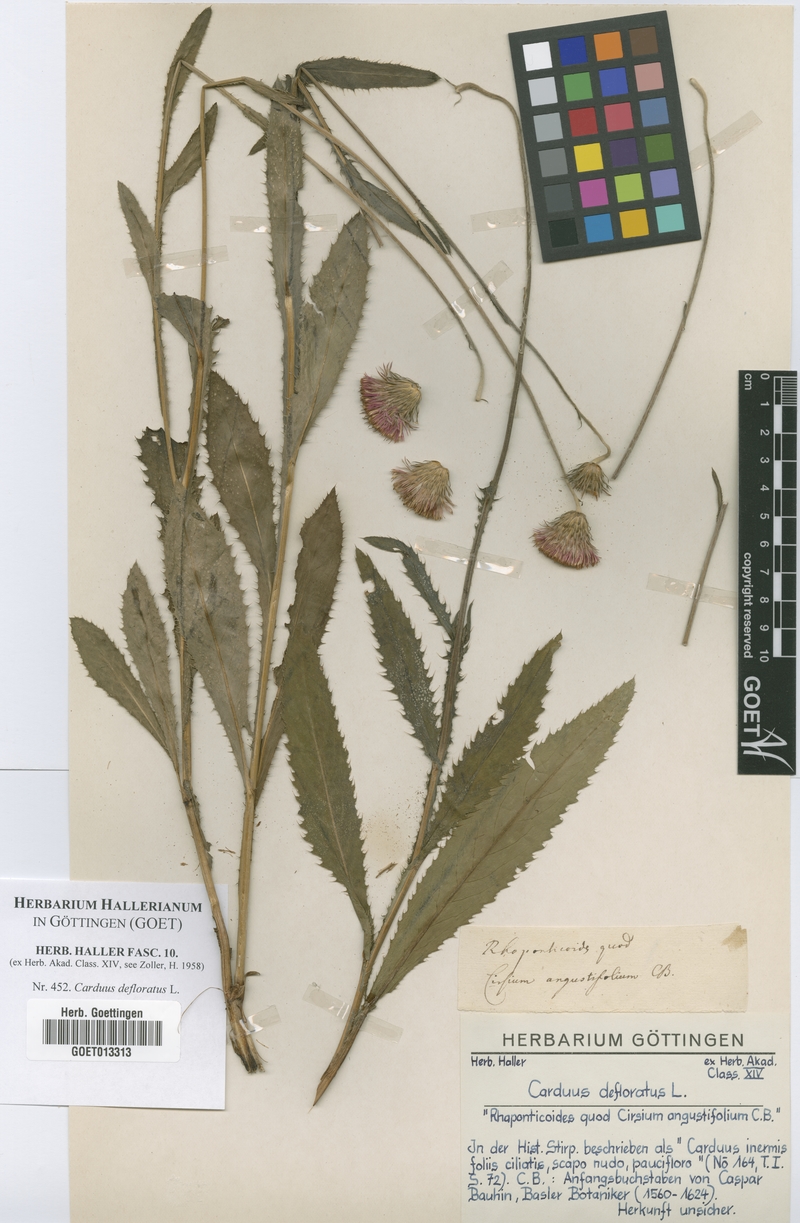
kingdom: Plantae
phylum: Tracheophyta
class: Magnoliopsida
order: Asterales
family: Asteraceae
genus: Carduus
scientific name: Carduus defloratus
